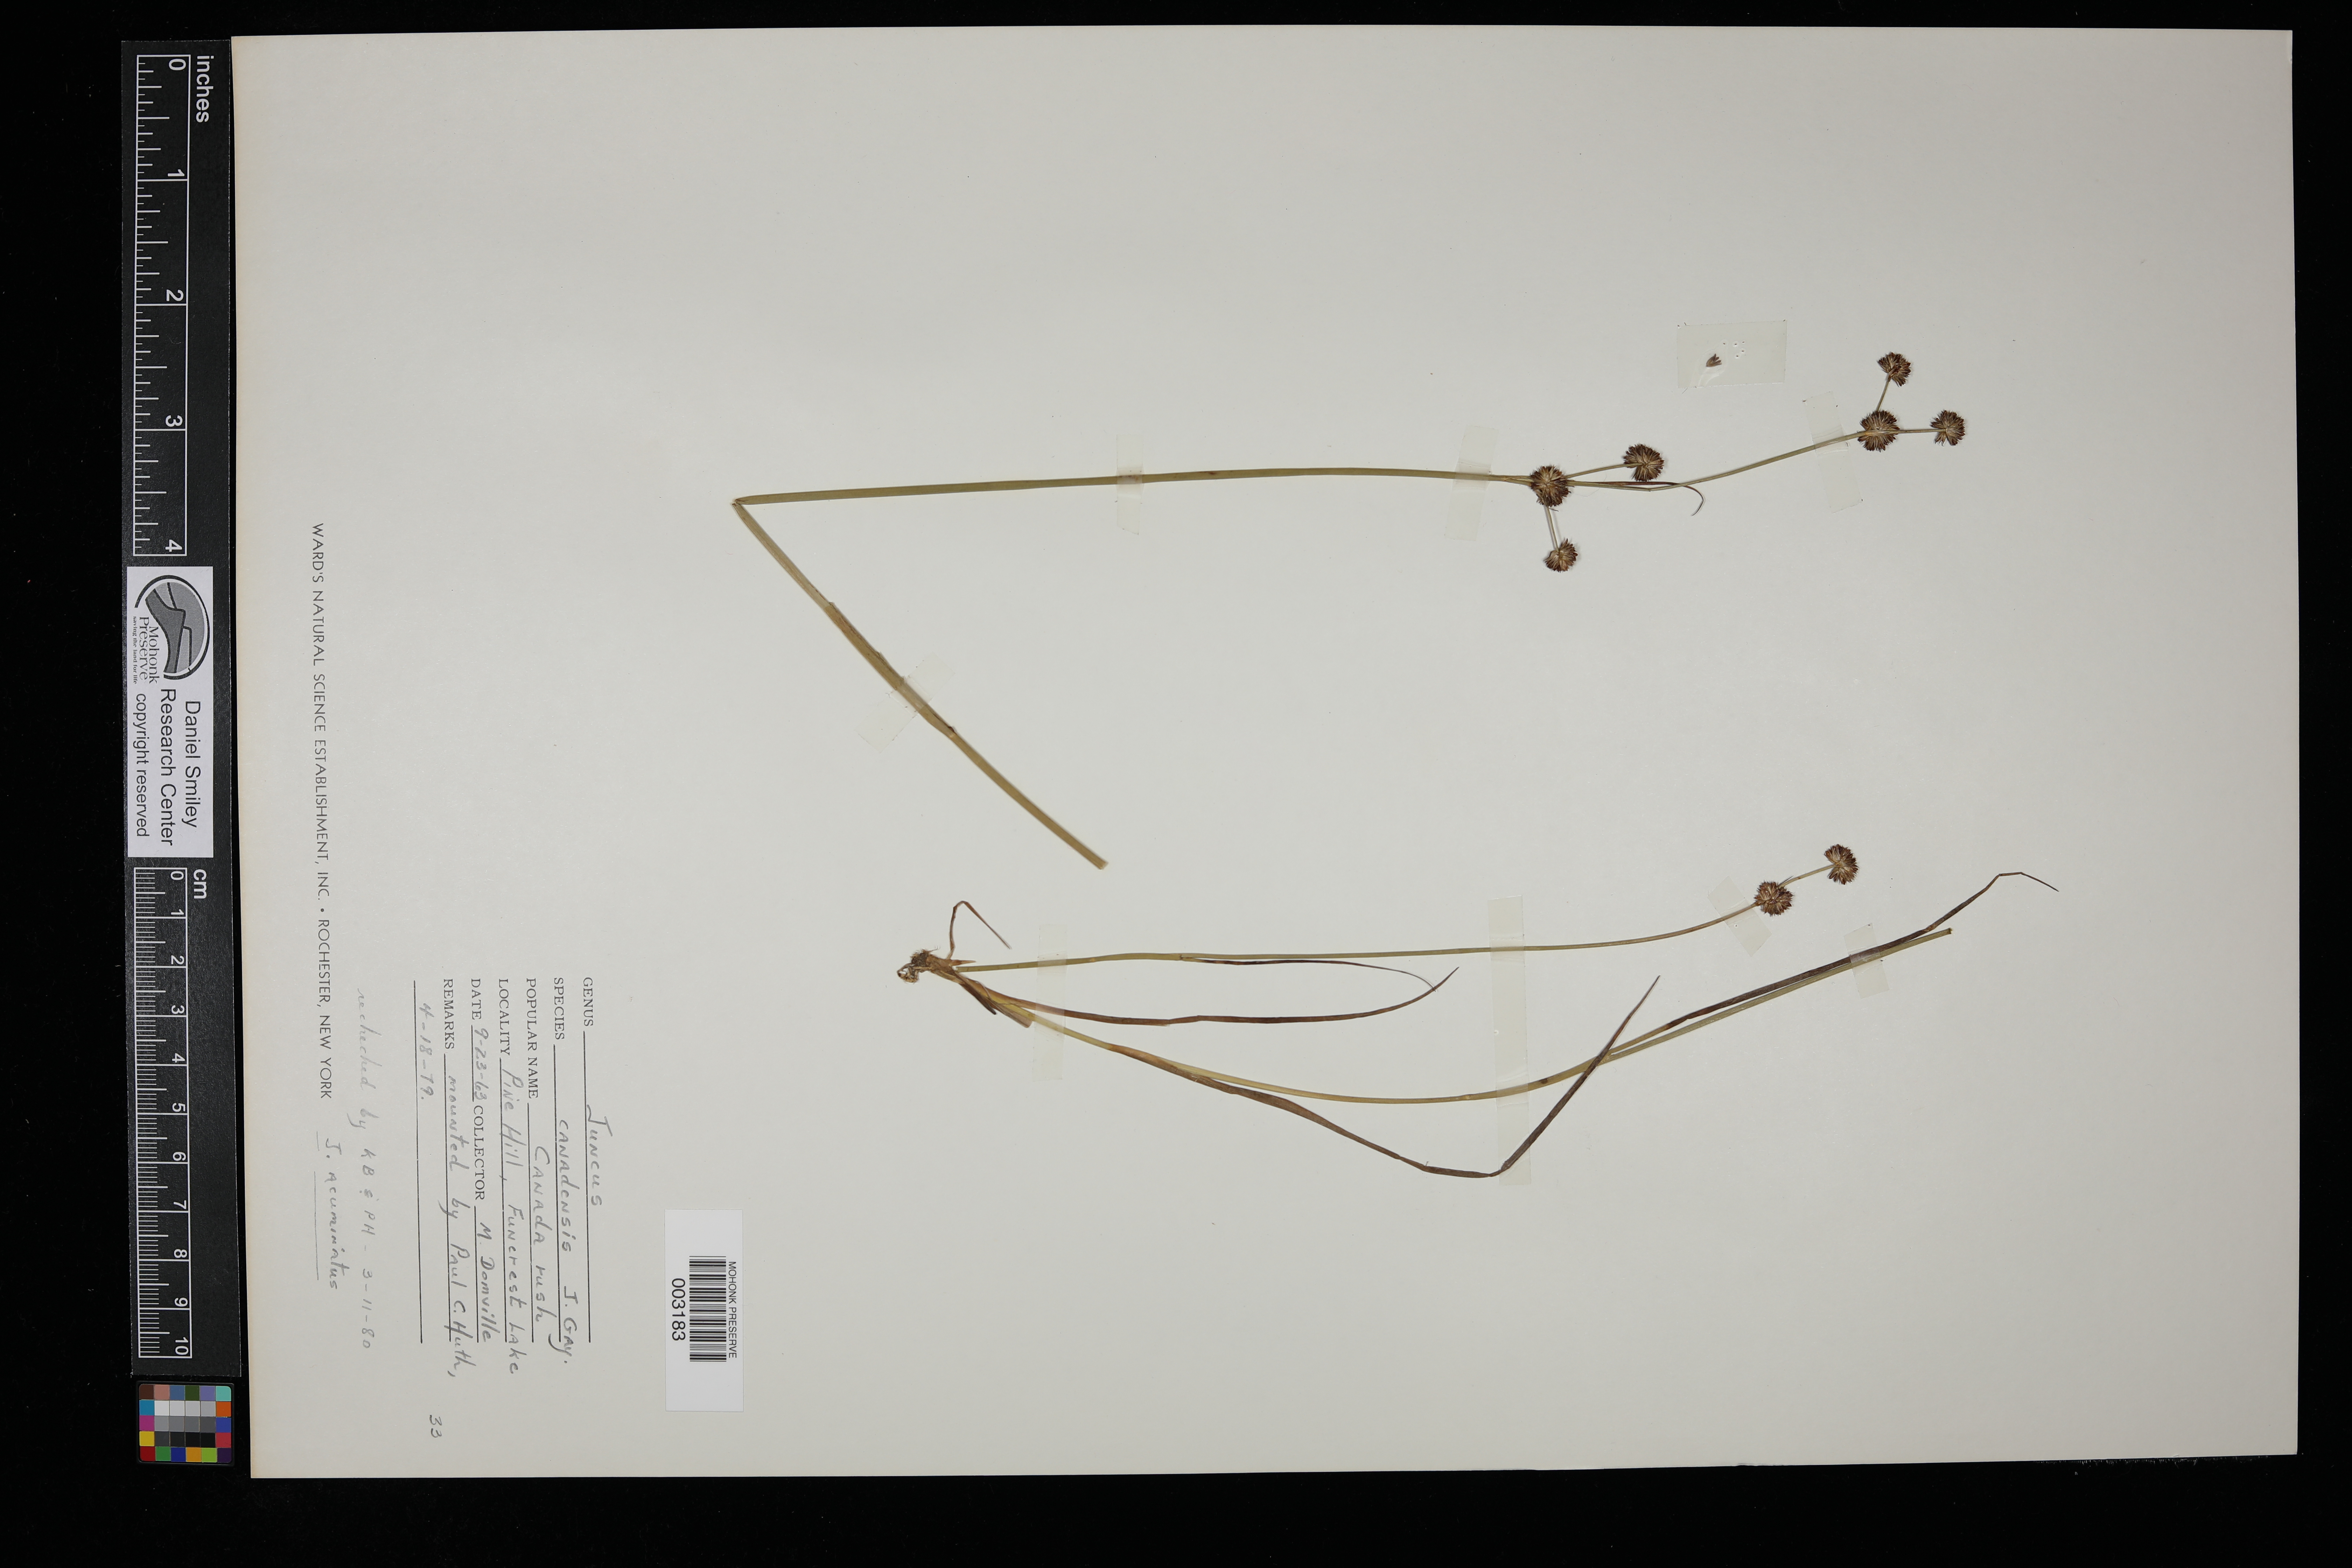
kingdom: Plantae
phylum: Tracheophyta
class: Liliopsida
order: Poales
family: Juncaceae
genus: Juncus
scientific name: Juncus canadensis
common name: Canada rush
